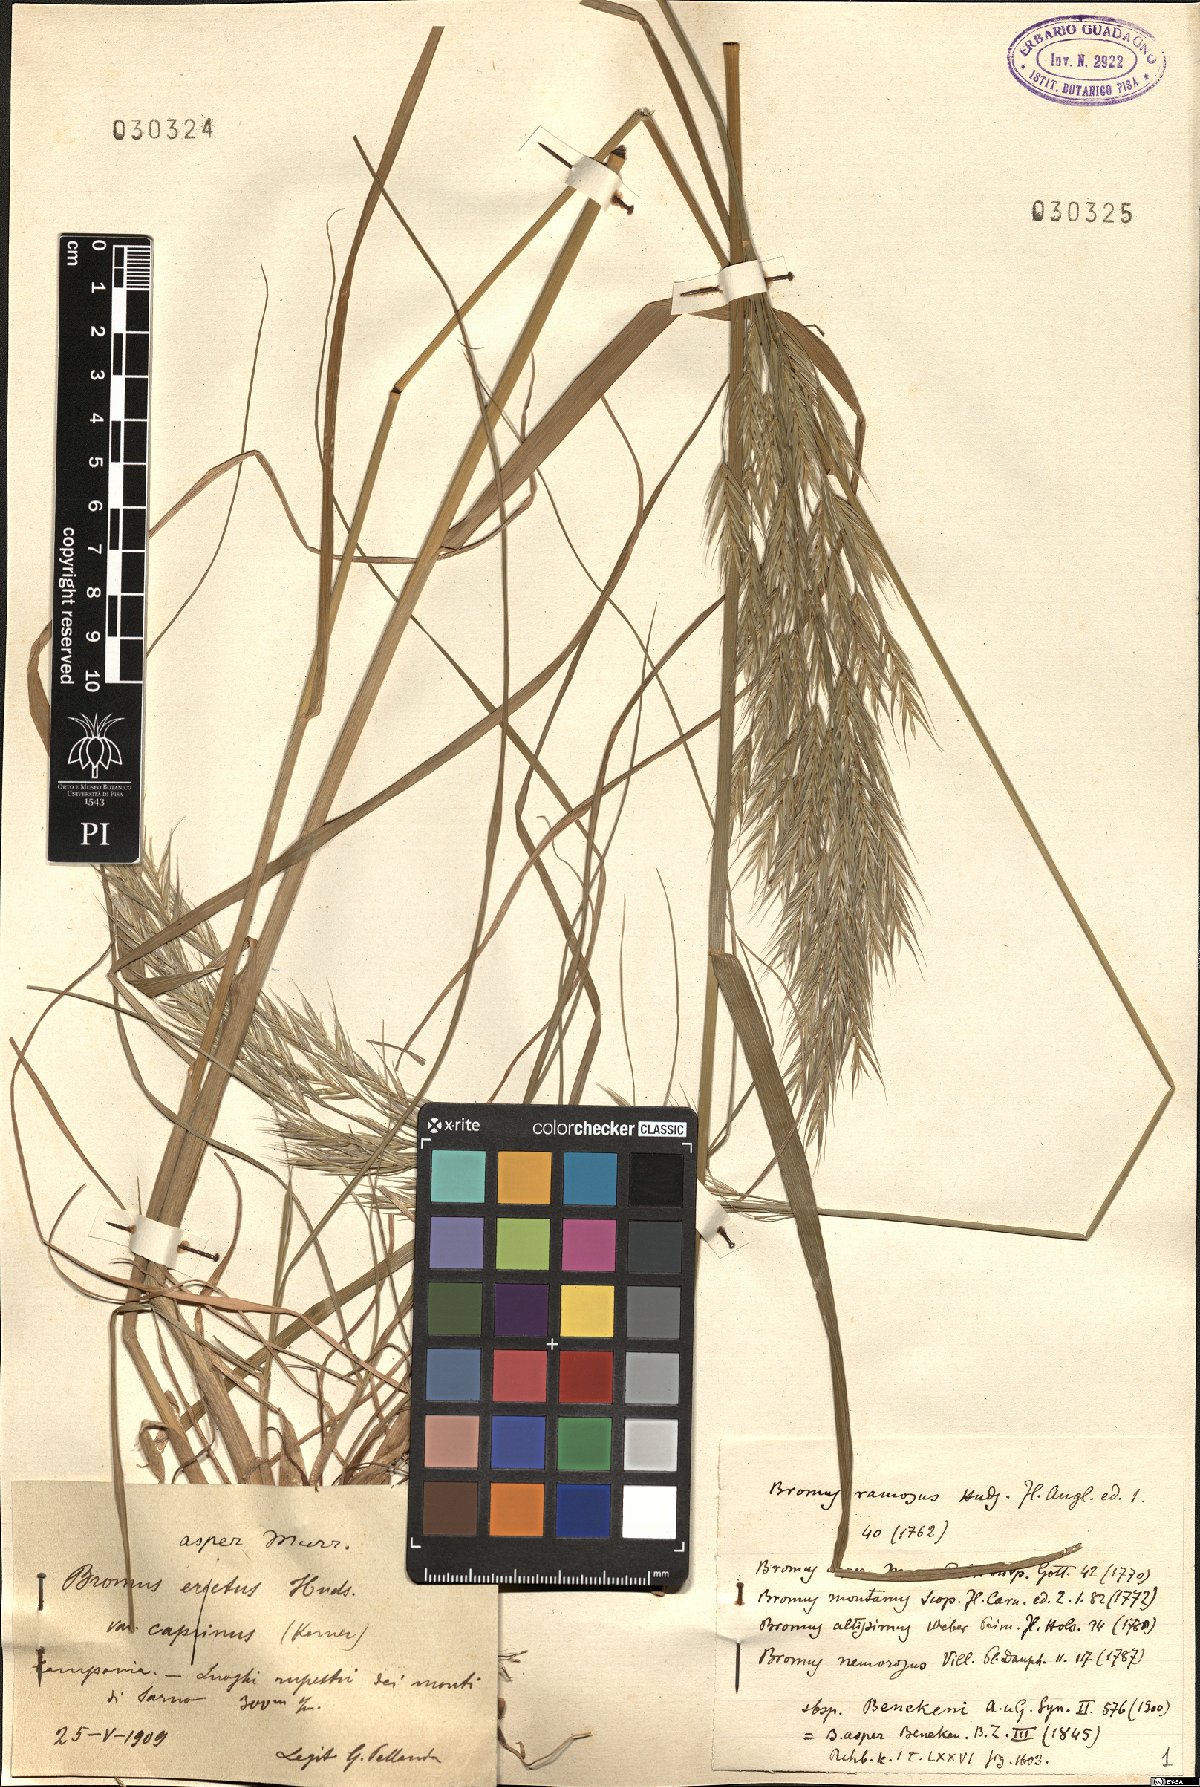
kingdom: Plantae
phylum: Tracheophyta
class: Liliopsida
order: Poales
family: Poaceae
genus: Bromus
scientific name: Bromus benekenii
